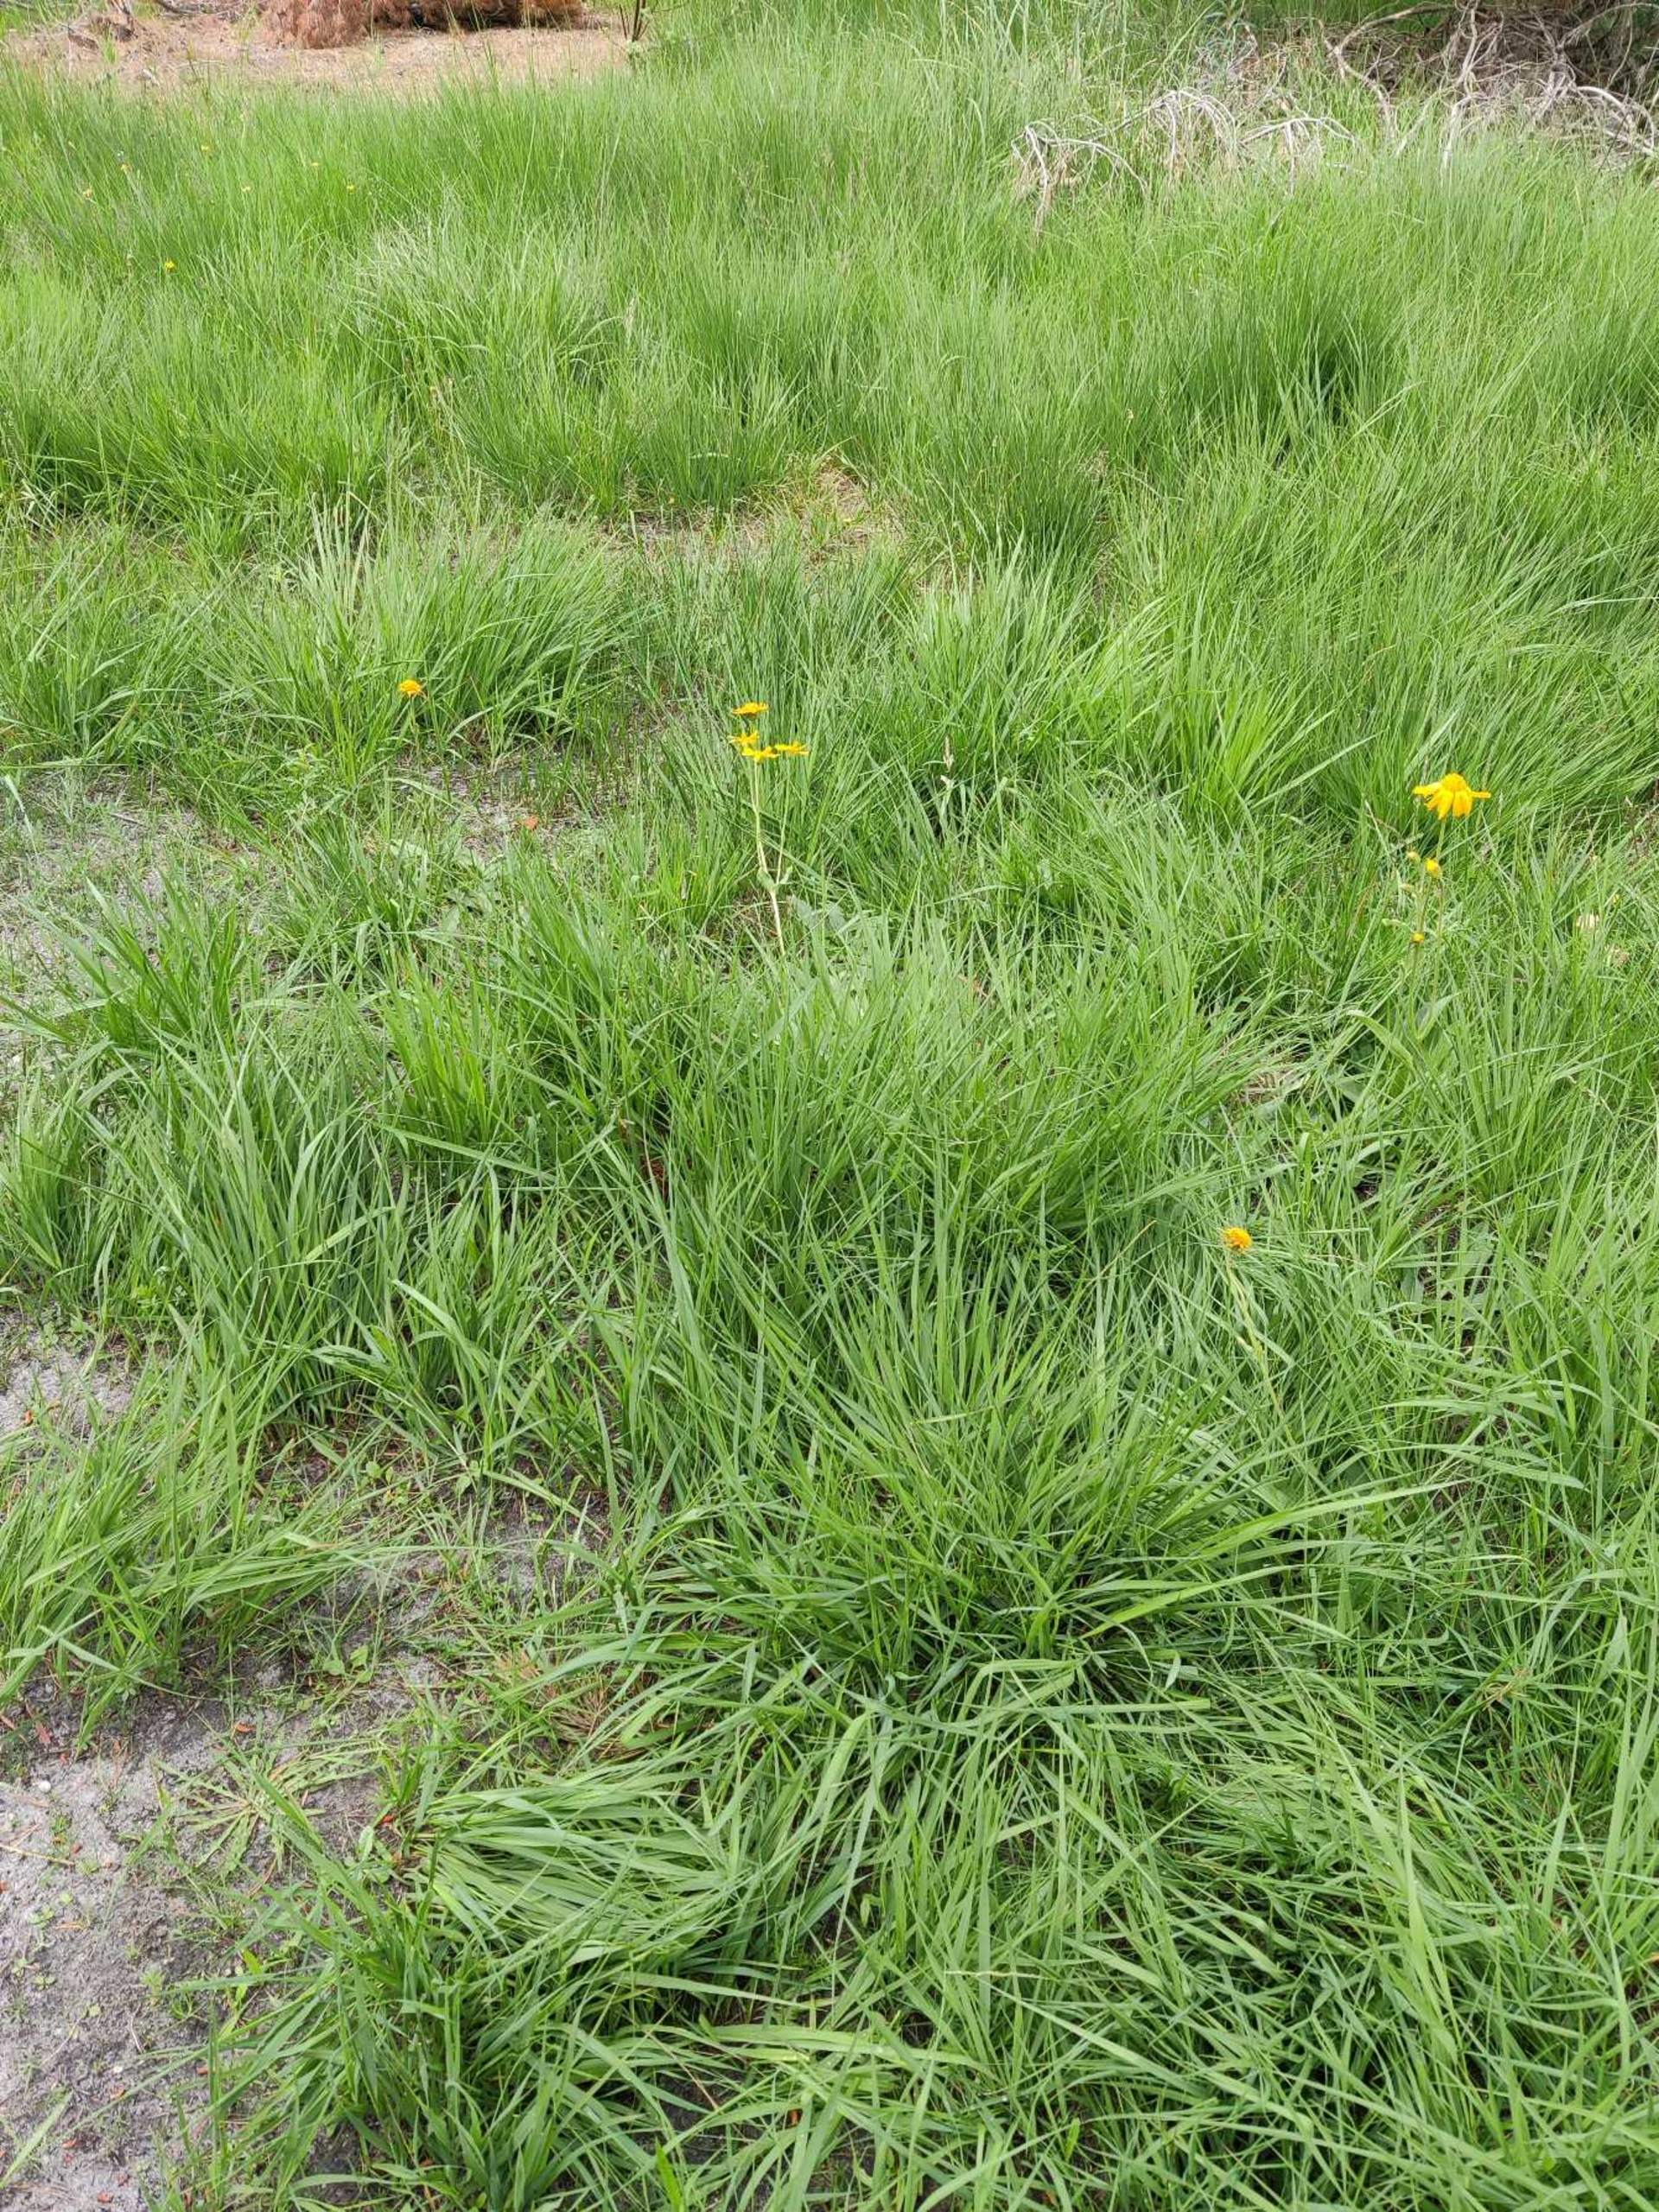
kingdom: Plantae
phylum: Tracheophyta
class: Magnoliopsida
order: Asterales
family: Asteraceae
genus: Arnica
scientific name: Arnica montana
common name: Guldblomme
